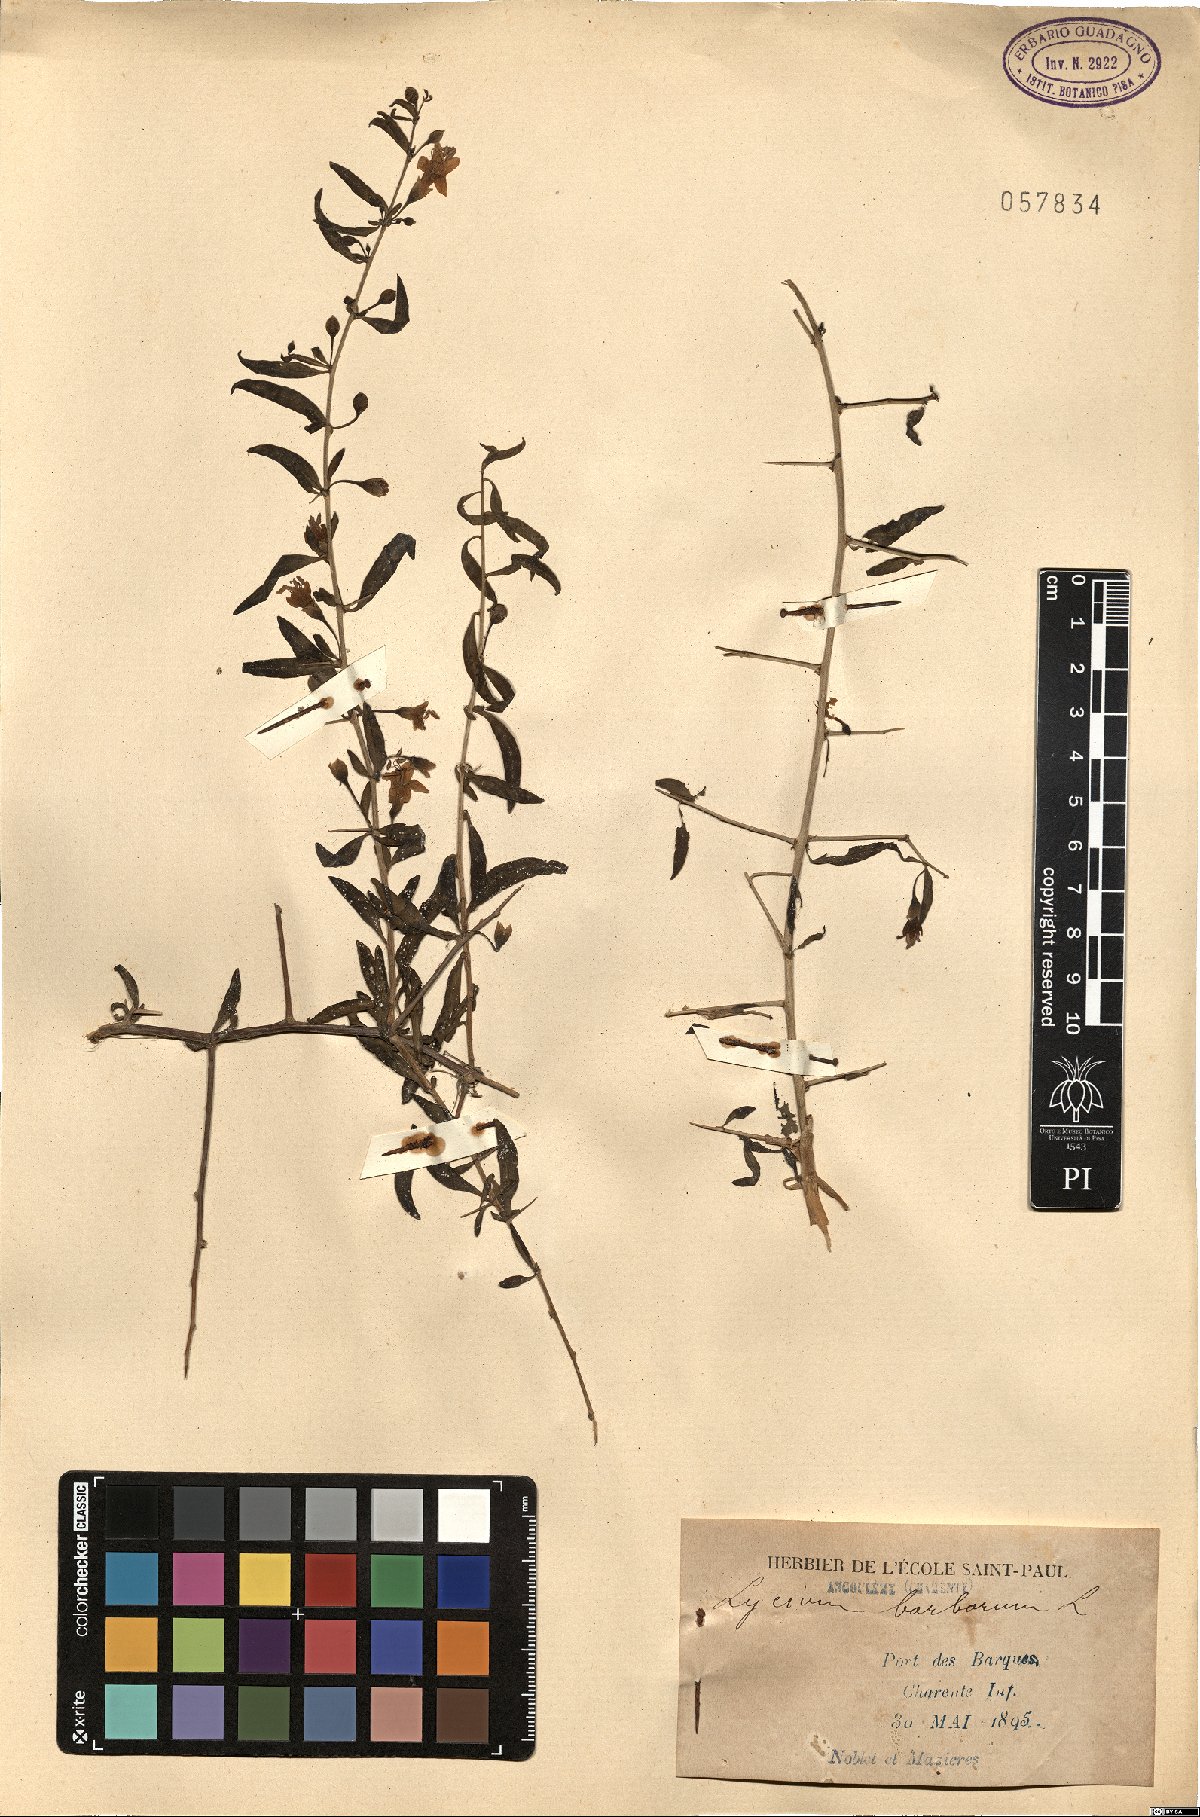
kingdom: Plantae
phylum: Tracheophyta
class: Magnoliopsida
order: Solanales
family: Solanaceae
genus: Lycium
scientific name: Lycium barbarum
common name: Duke of argyll's teaplant
